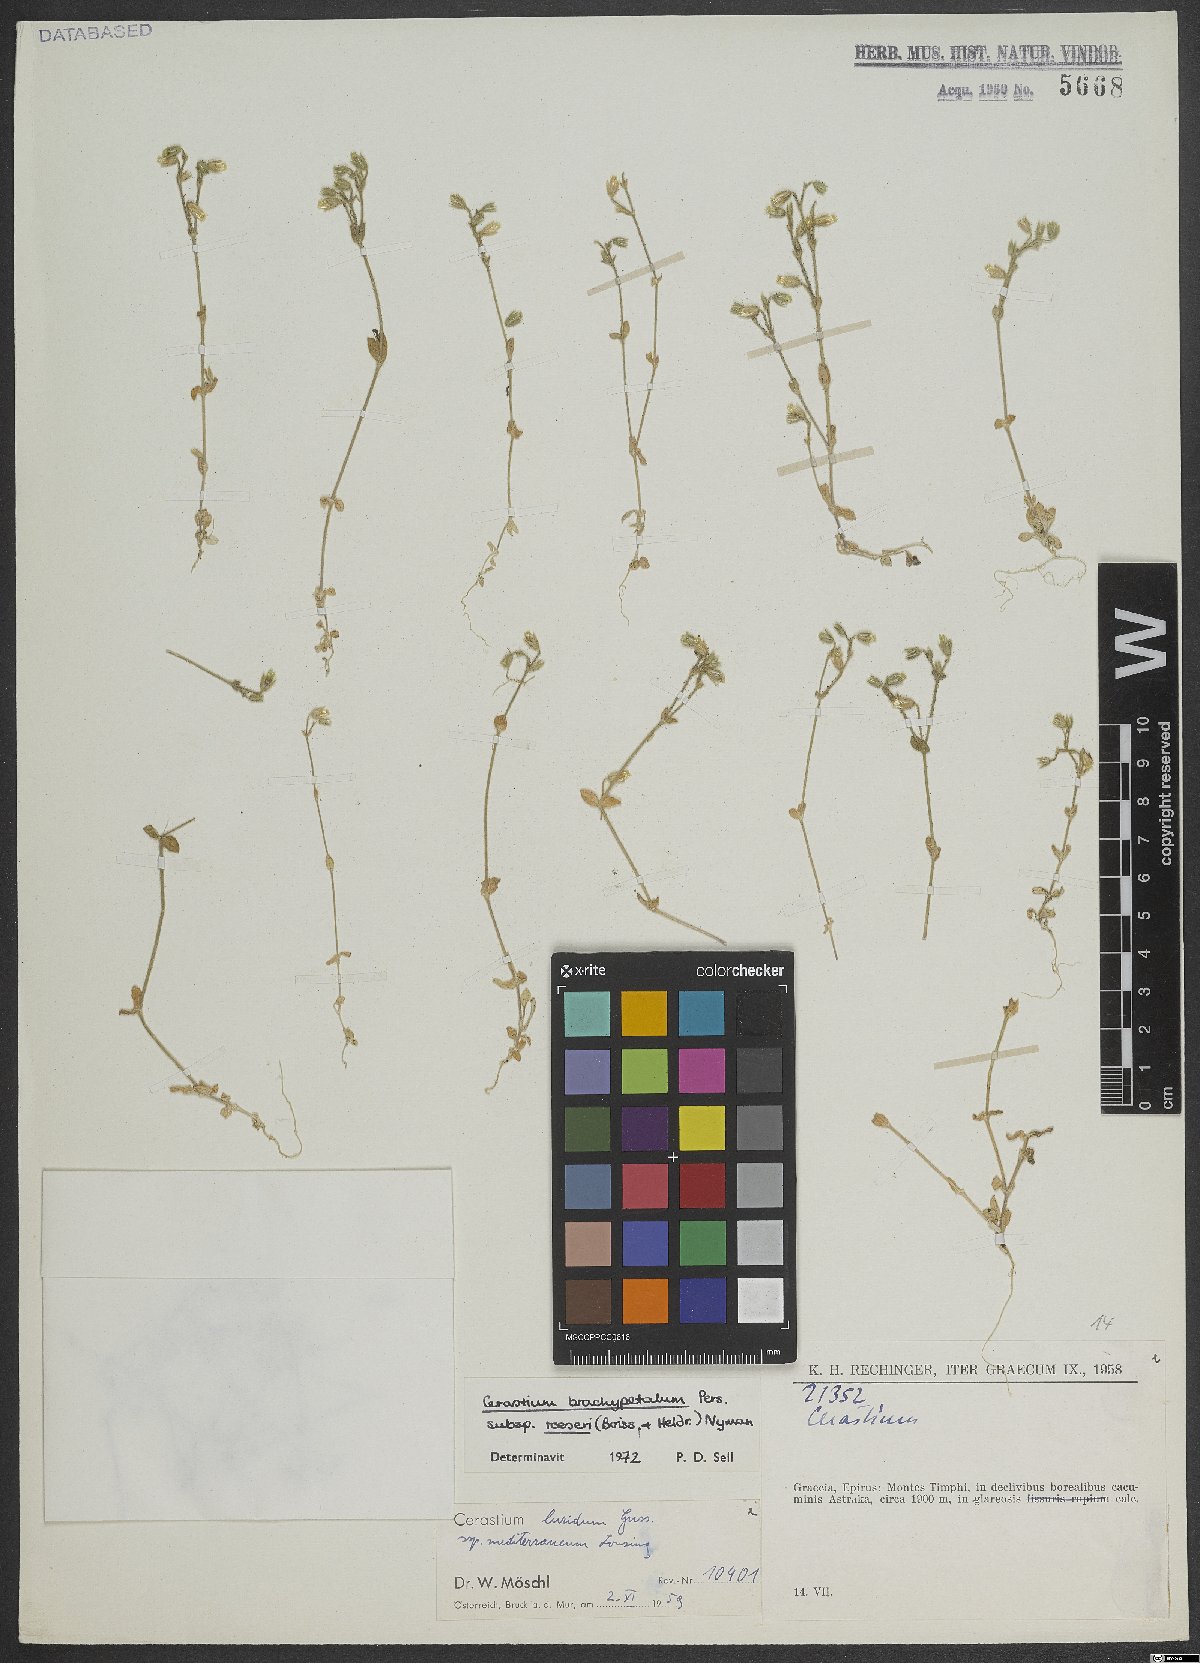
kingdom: Plantae
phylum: Tracheophyta
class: Magnoliopsida
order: Caryophyllales
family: Caryophyllaceae
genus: Cerastium
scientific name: Cerastium brachypetalum
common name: Grey mouse-ear
